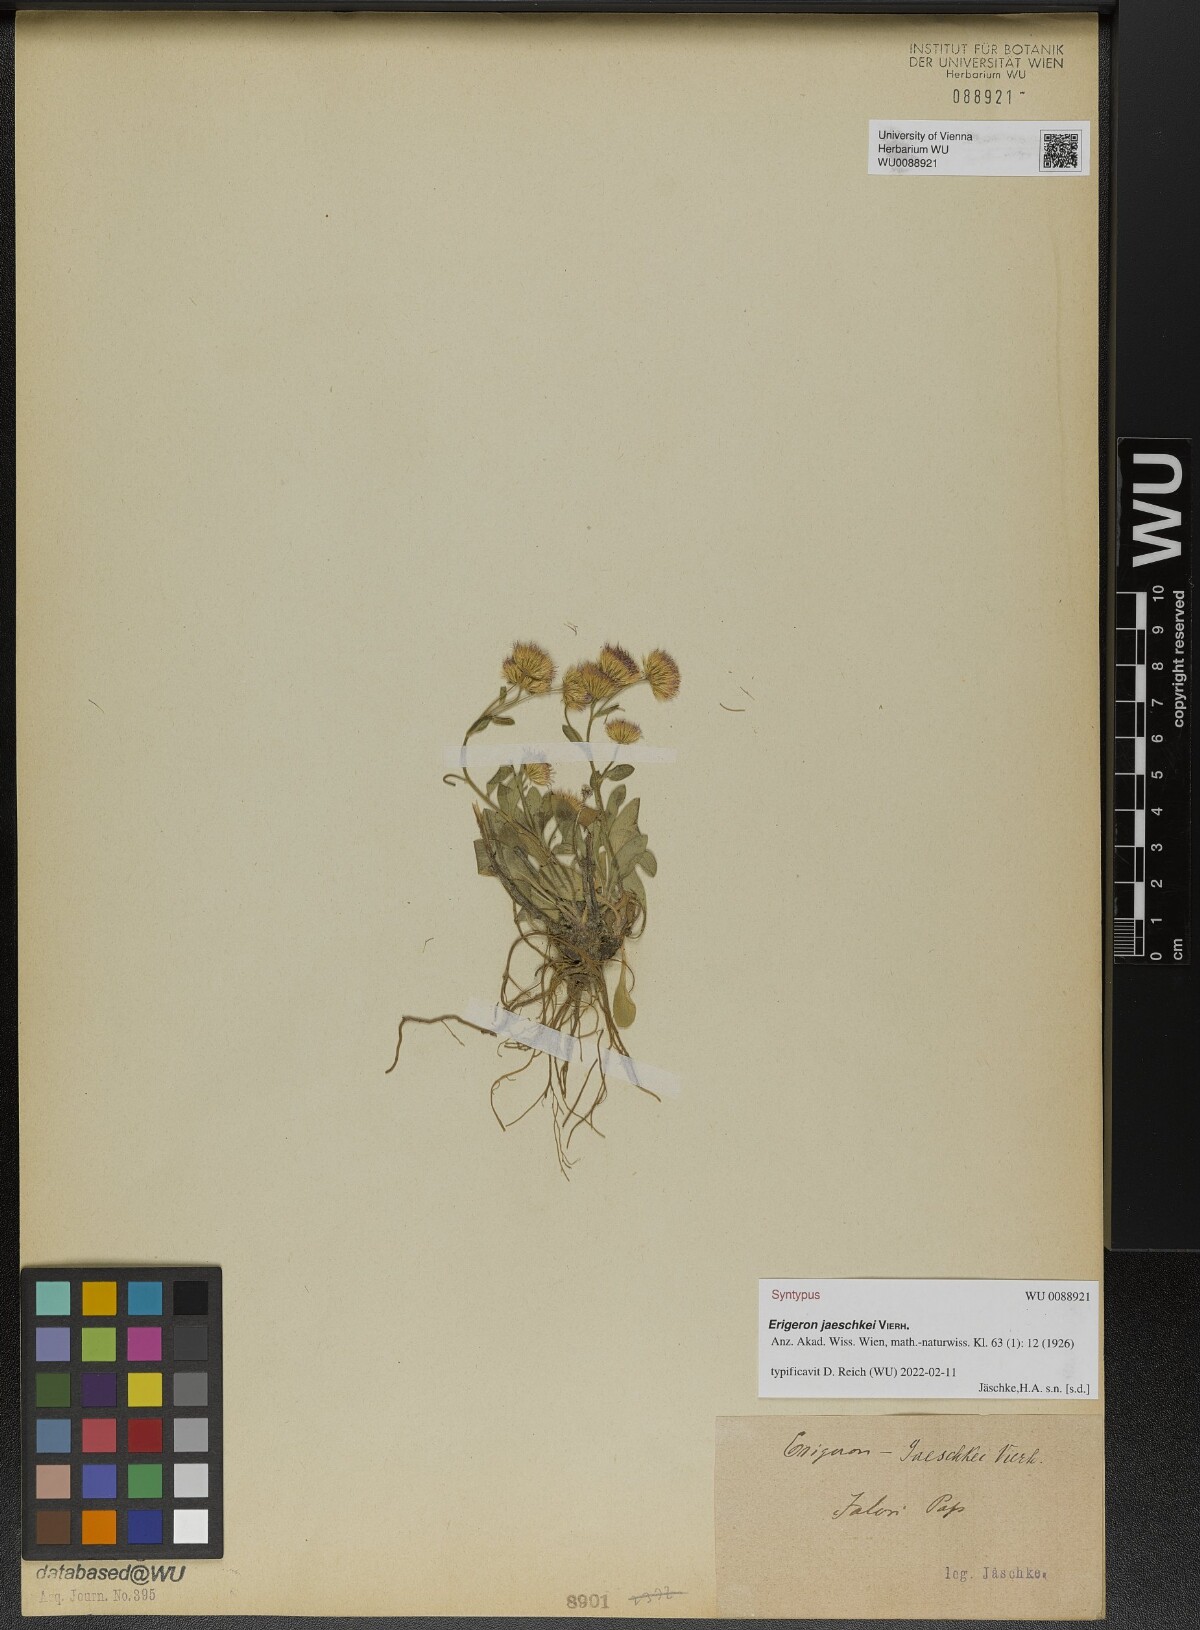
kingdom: Plantae
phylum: Tracheophyta
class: Magnoliopsida
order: Asterales
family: Asteraceae
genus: Erigeron
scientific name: Erigeron jaeschkei
